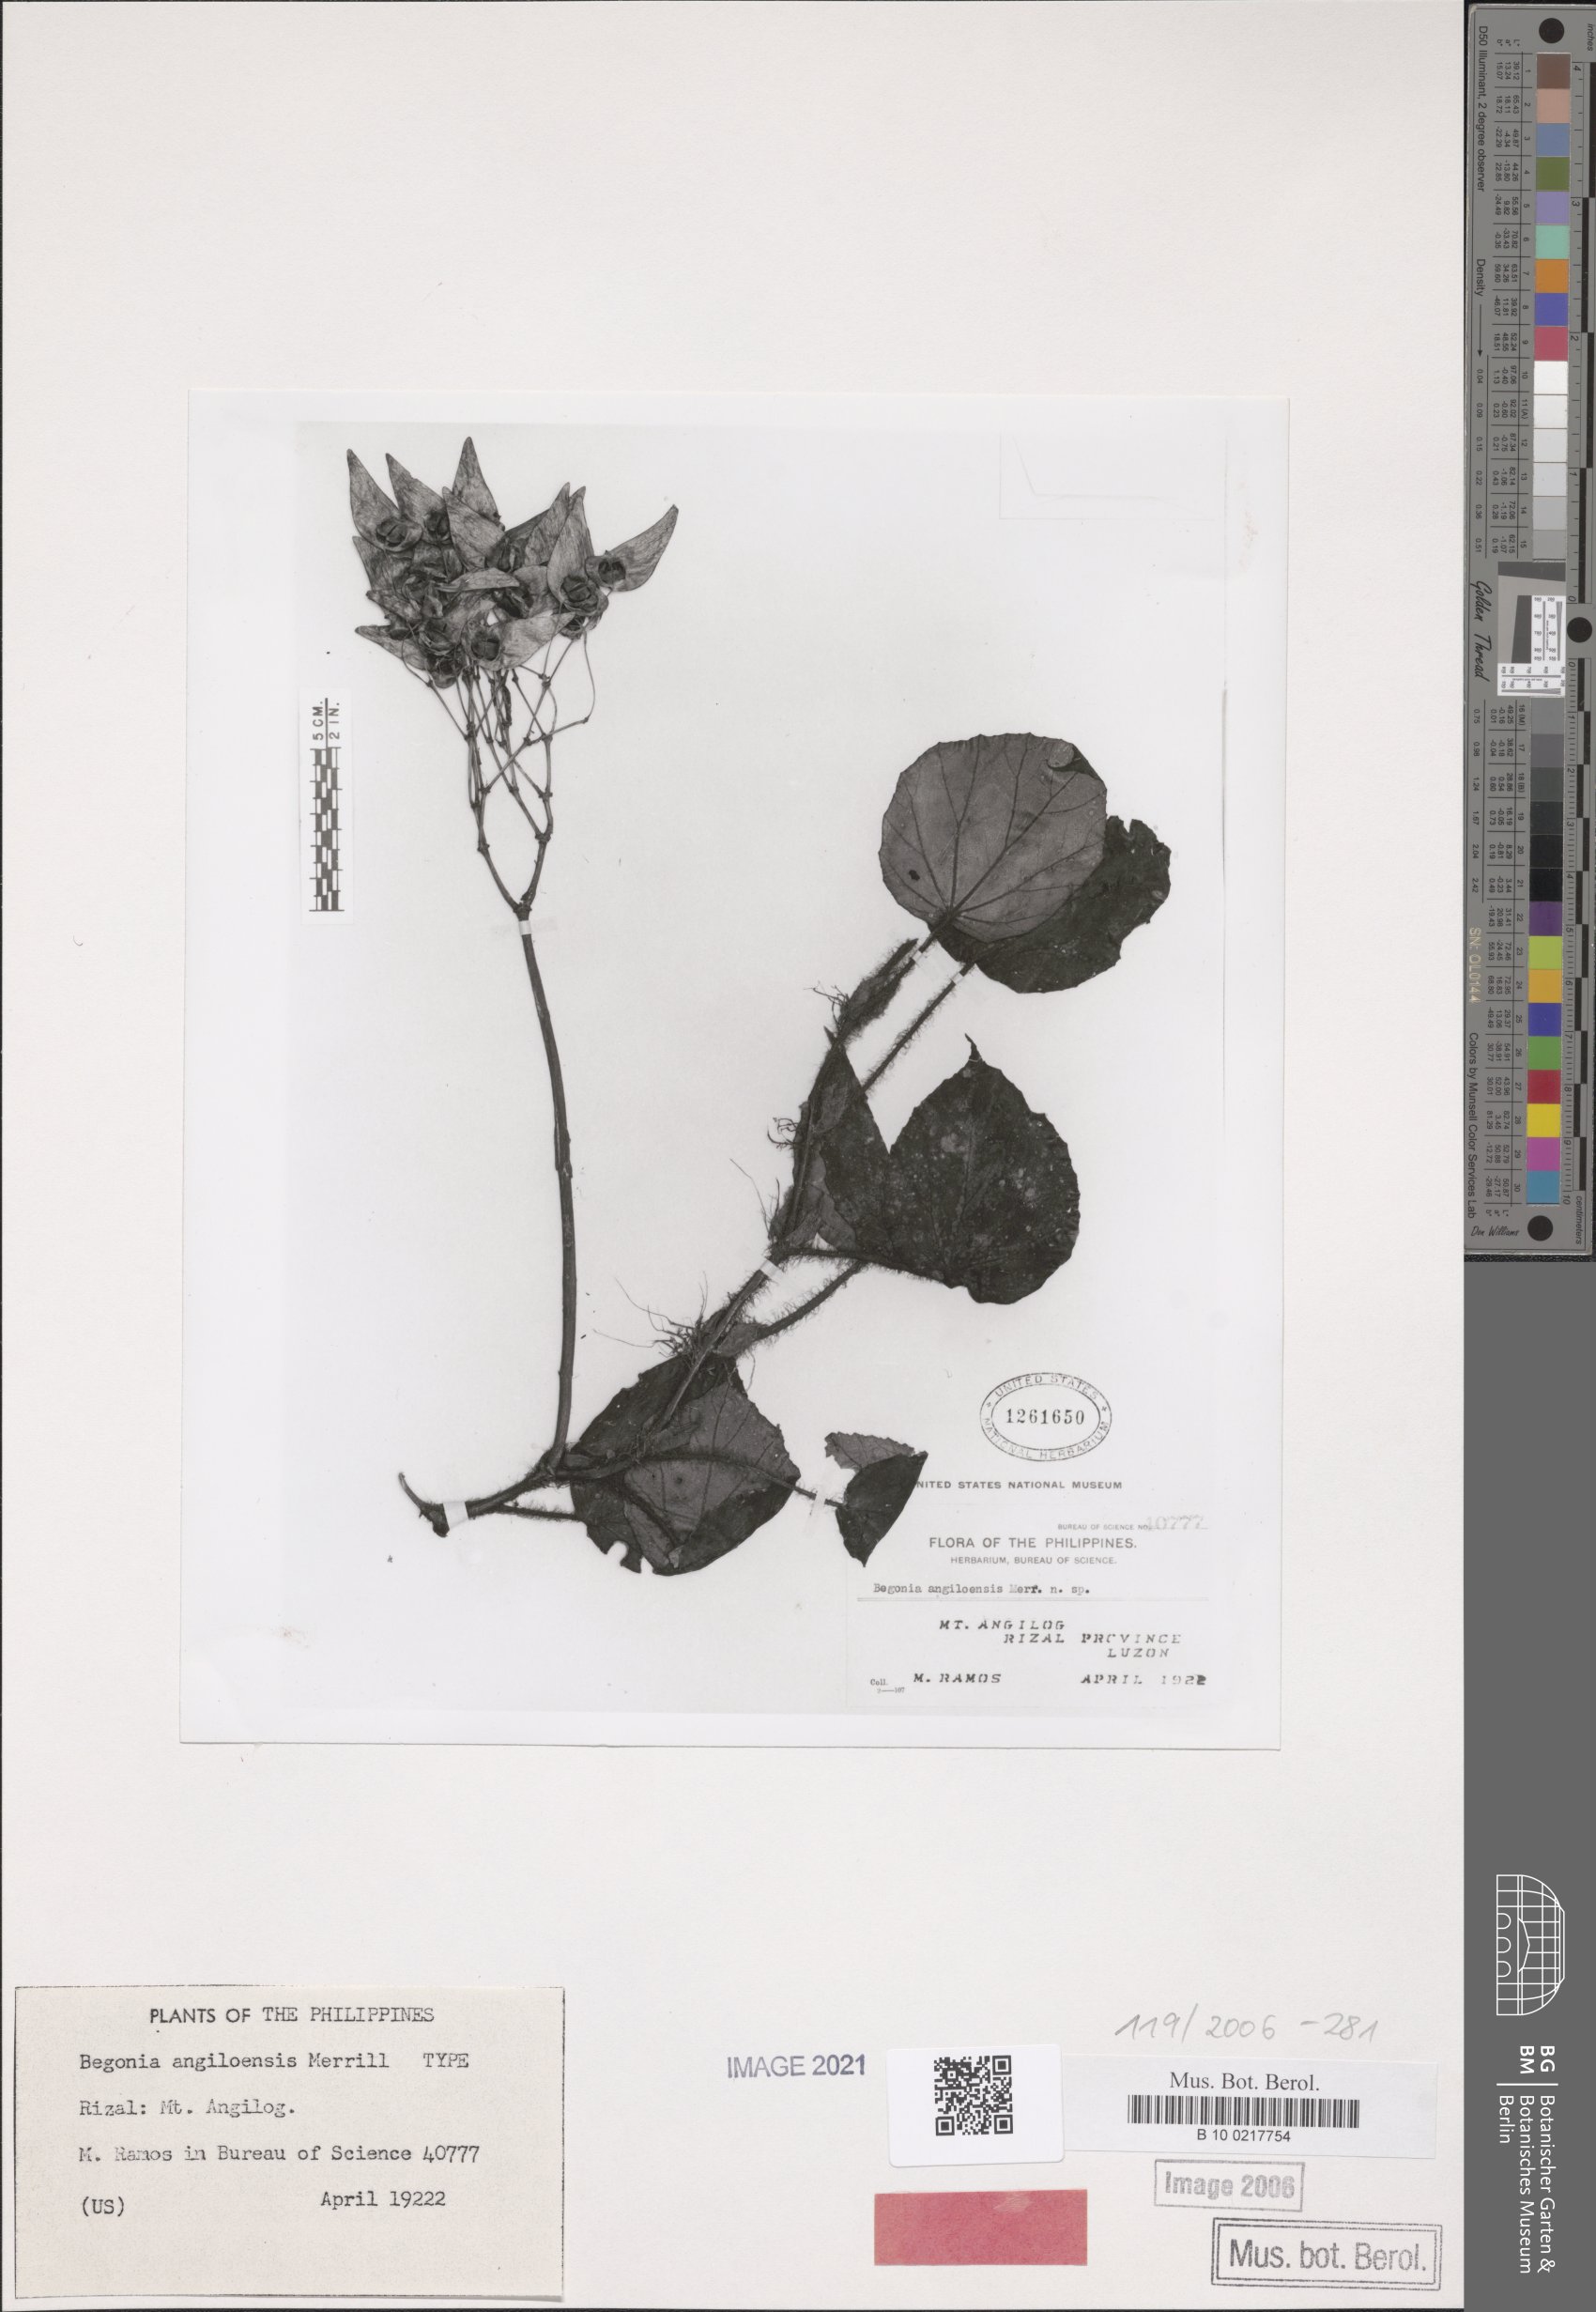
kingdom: Plantae
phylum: Tracheophyta
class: Magnoliopsida
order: Cucurbitales
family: Begoniaceae
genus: Begonia
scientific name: Begonia angilogensis
